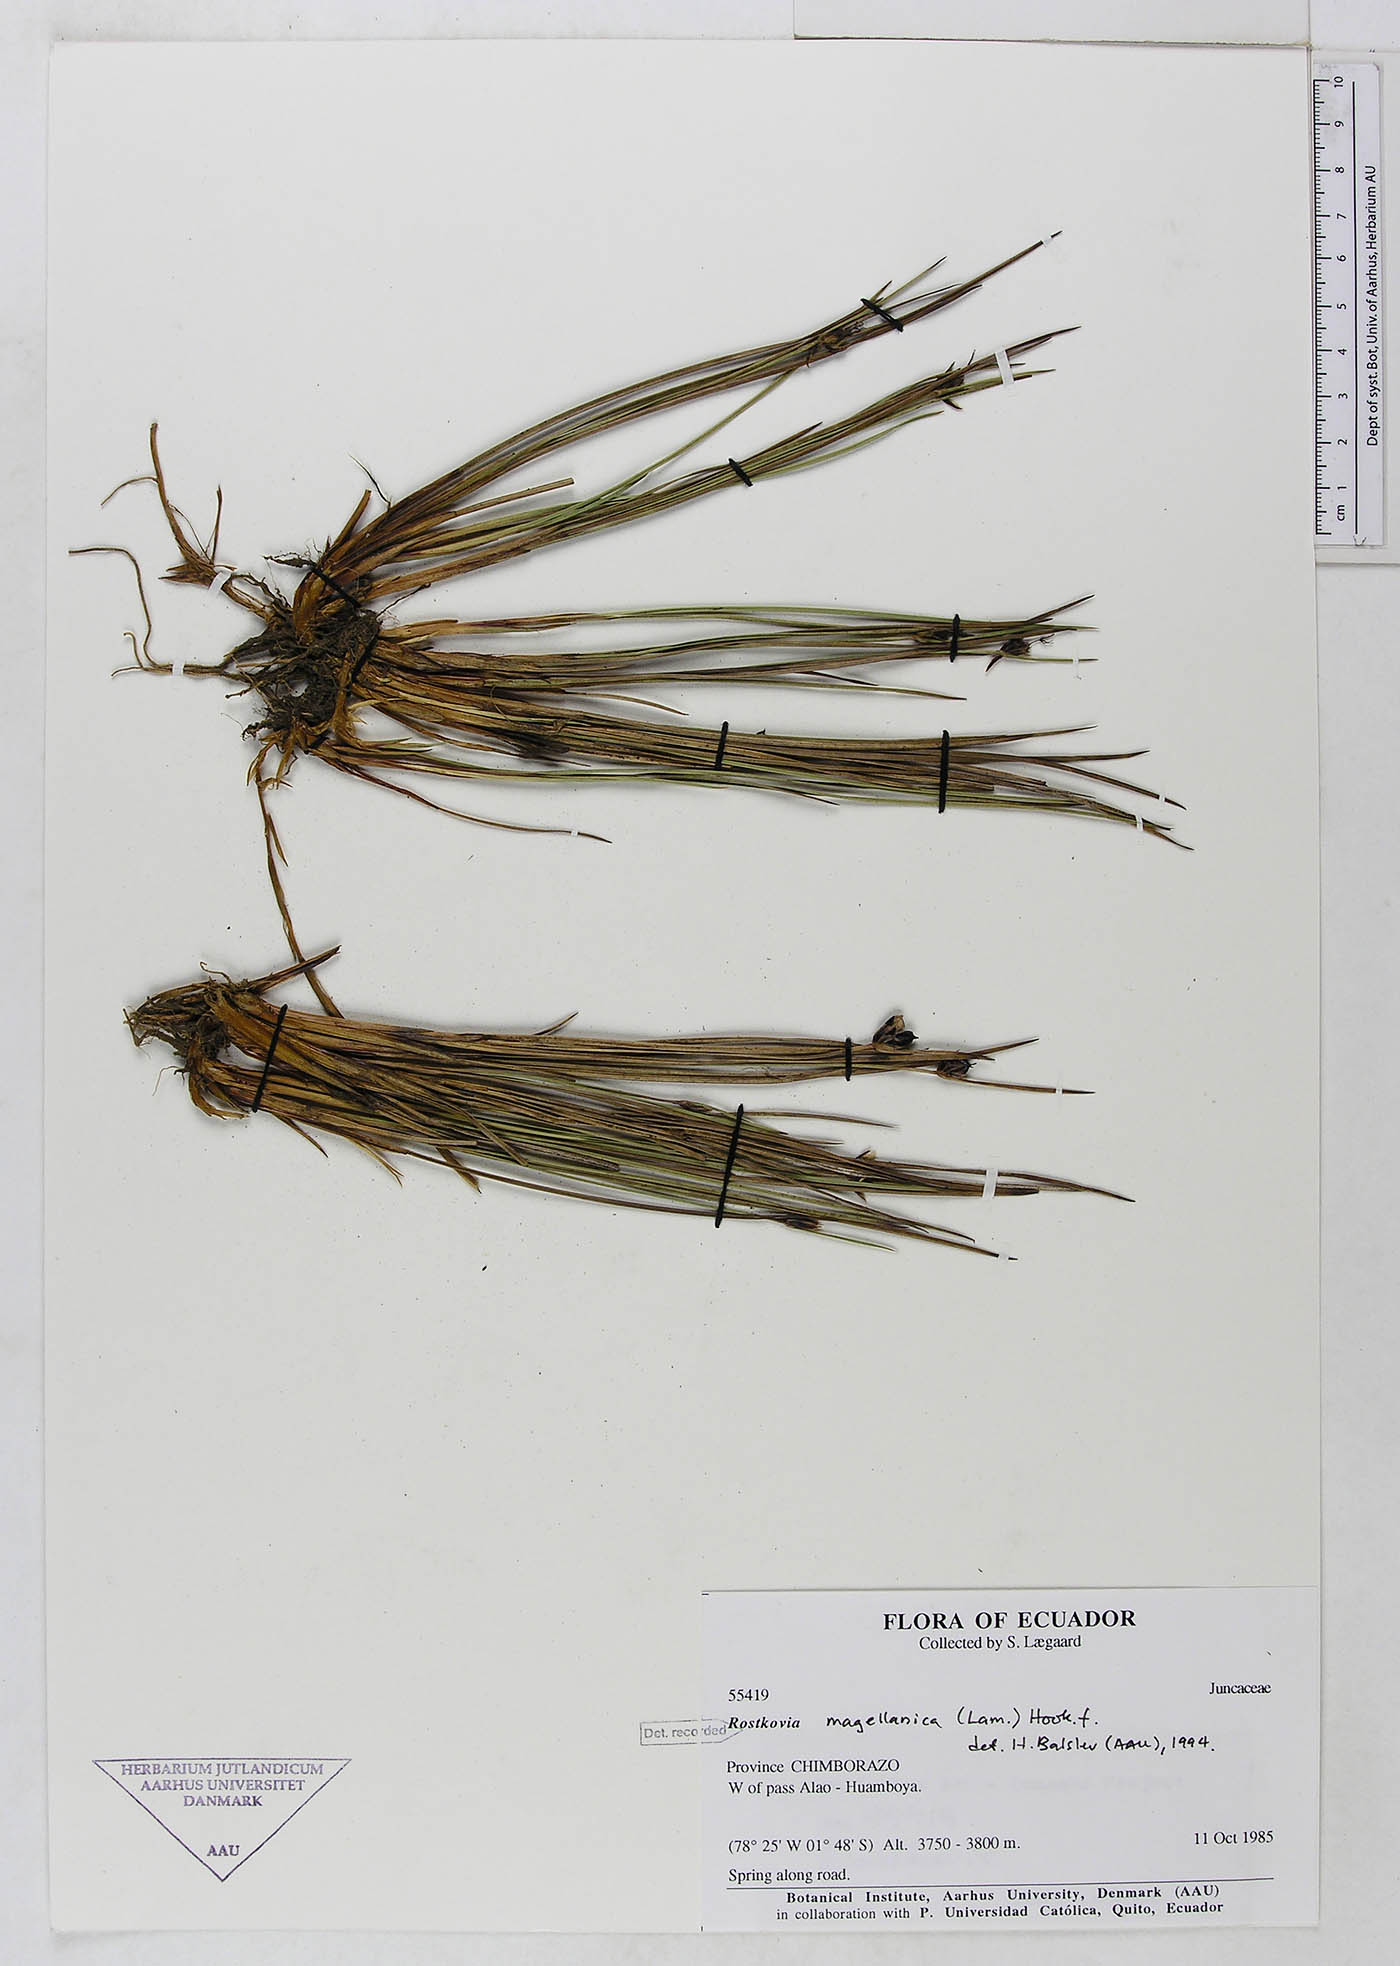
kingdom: Plantae
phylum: Tracheophyta
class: Liliopsida
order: Poales
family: Juncaceae
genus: Rostkovia
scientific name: Rostkovia magellanica
